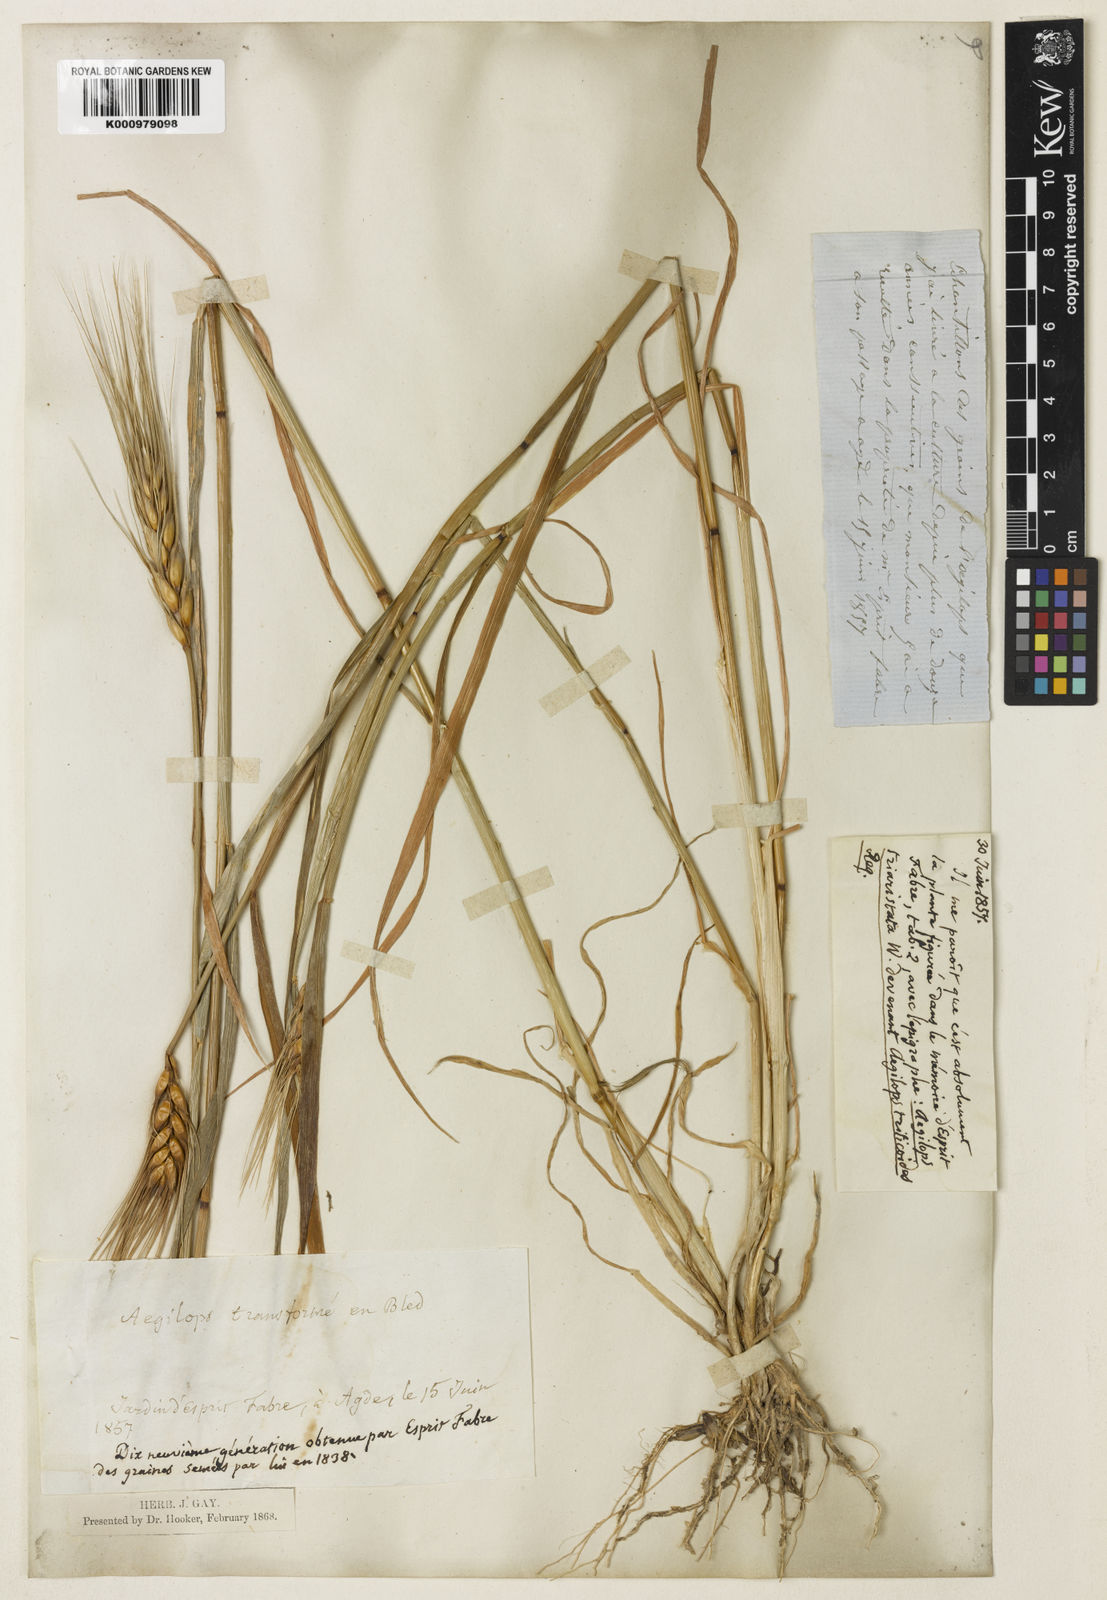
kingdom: Plantae
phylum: Tracheophyta
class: Liliopsida
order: Poales
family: Poaceae
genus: Triticum
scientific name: Triticum
